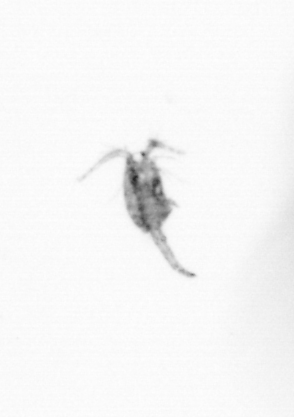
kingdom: Animalia
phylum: Arthropoda
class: Copepoda
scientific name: Copepoda
